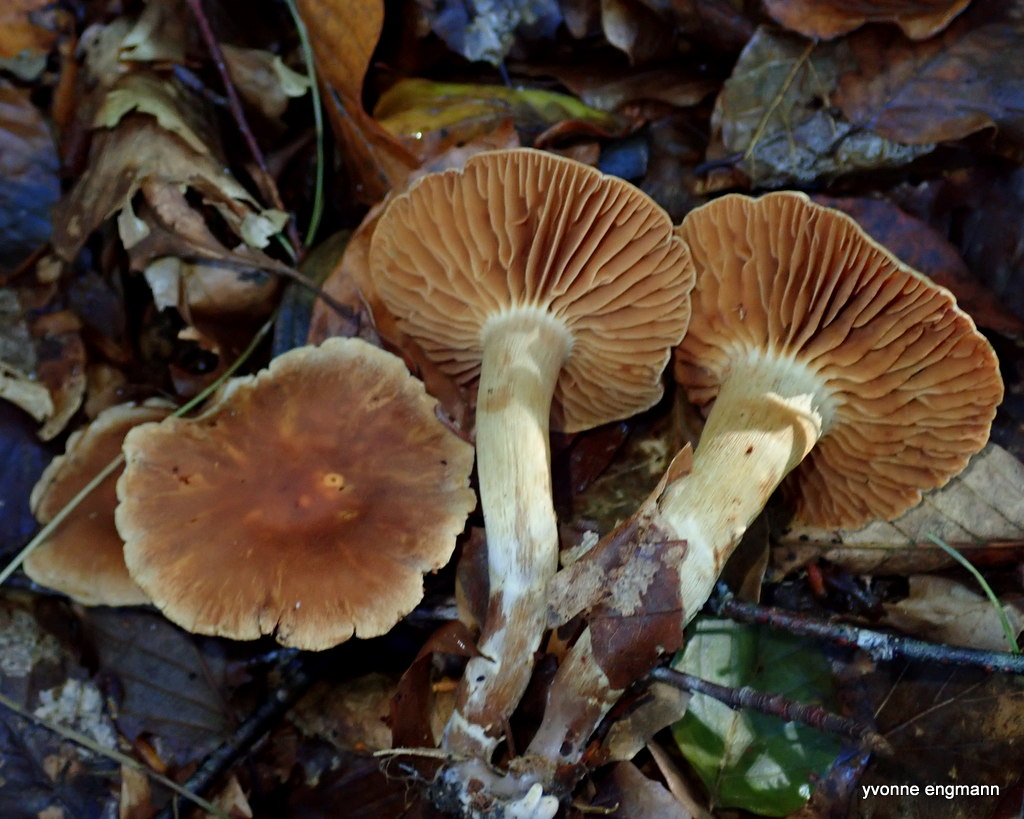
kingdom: Fungi
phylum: Basidiomycota
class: Agaricomycetes
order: Agaricales
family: Cortinariaceae
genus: Cortinarius
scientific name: Cortinarius
